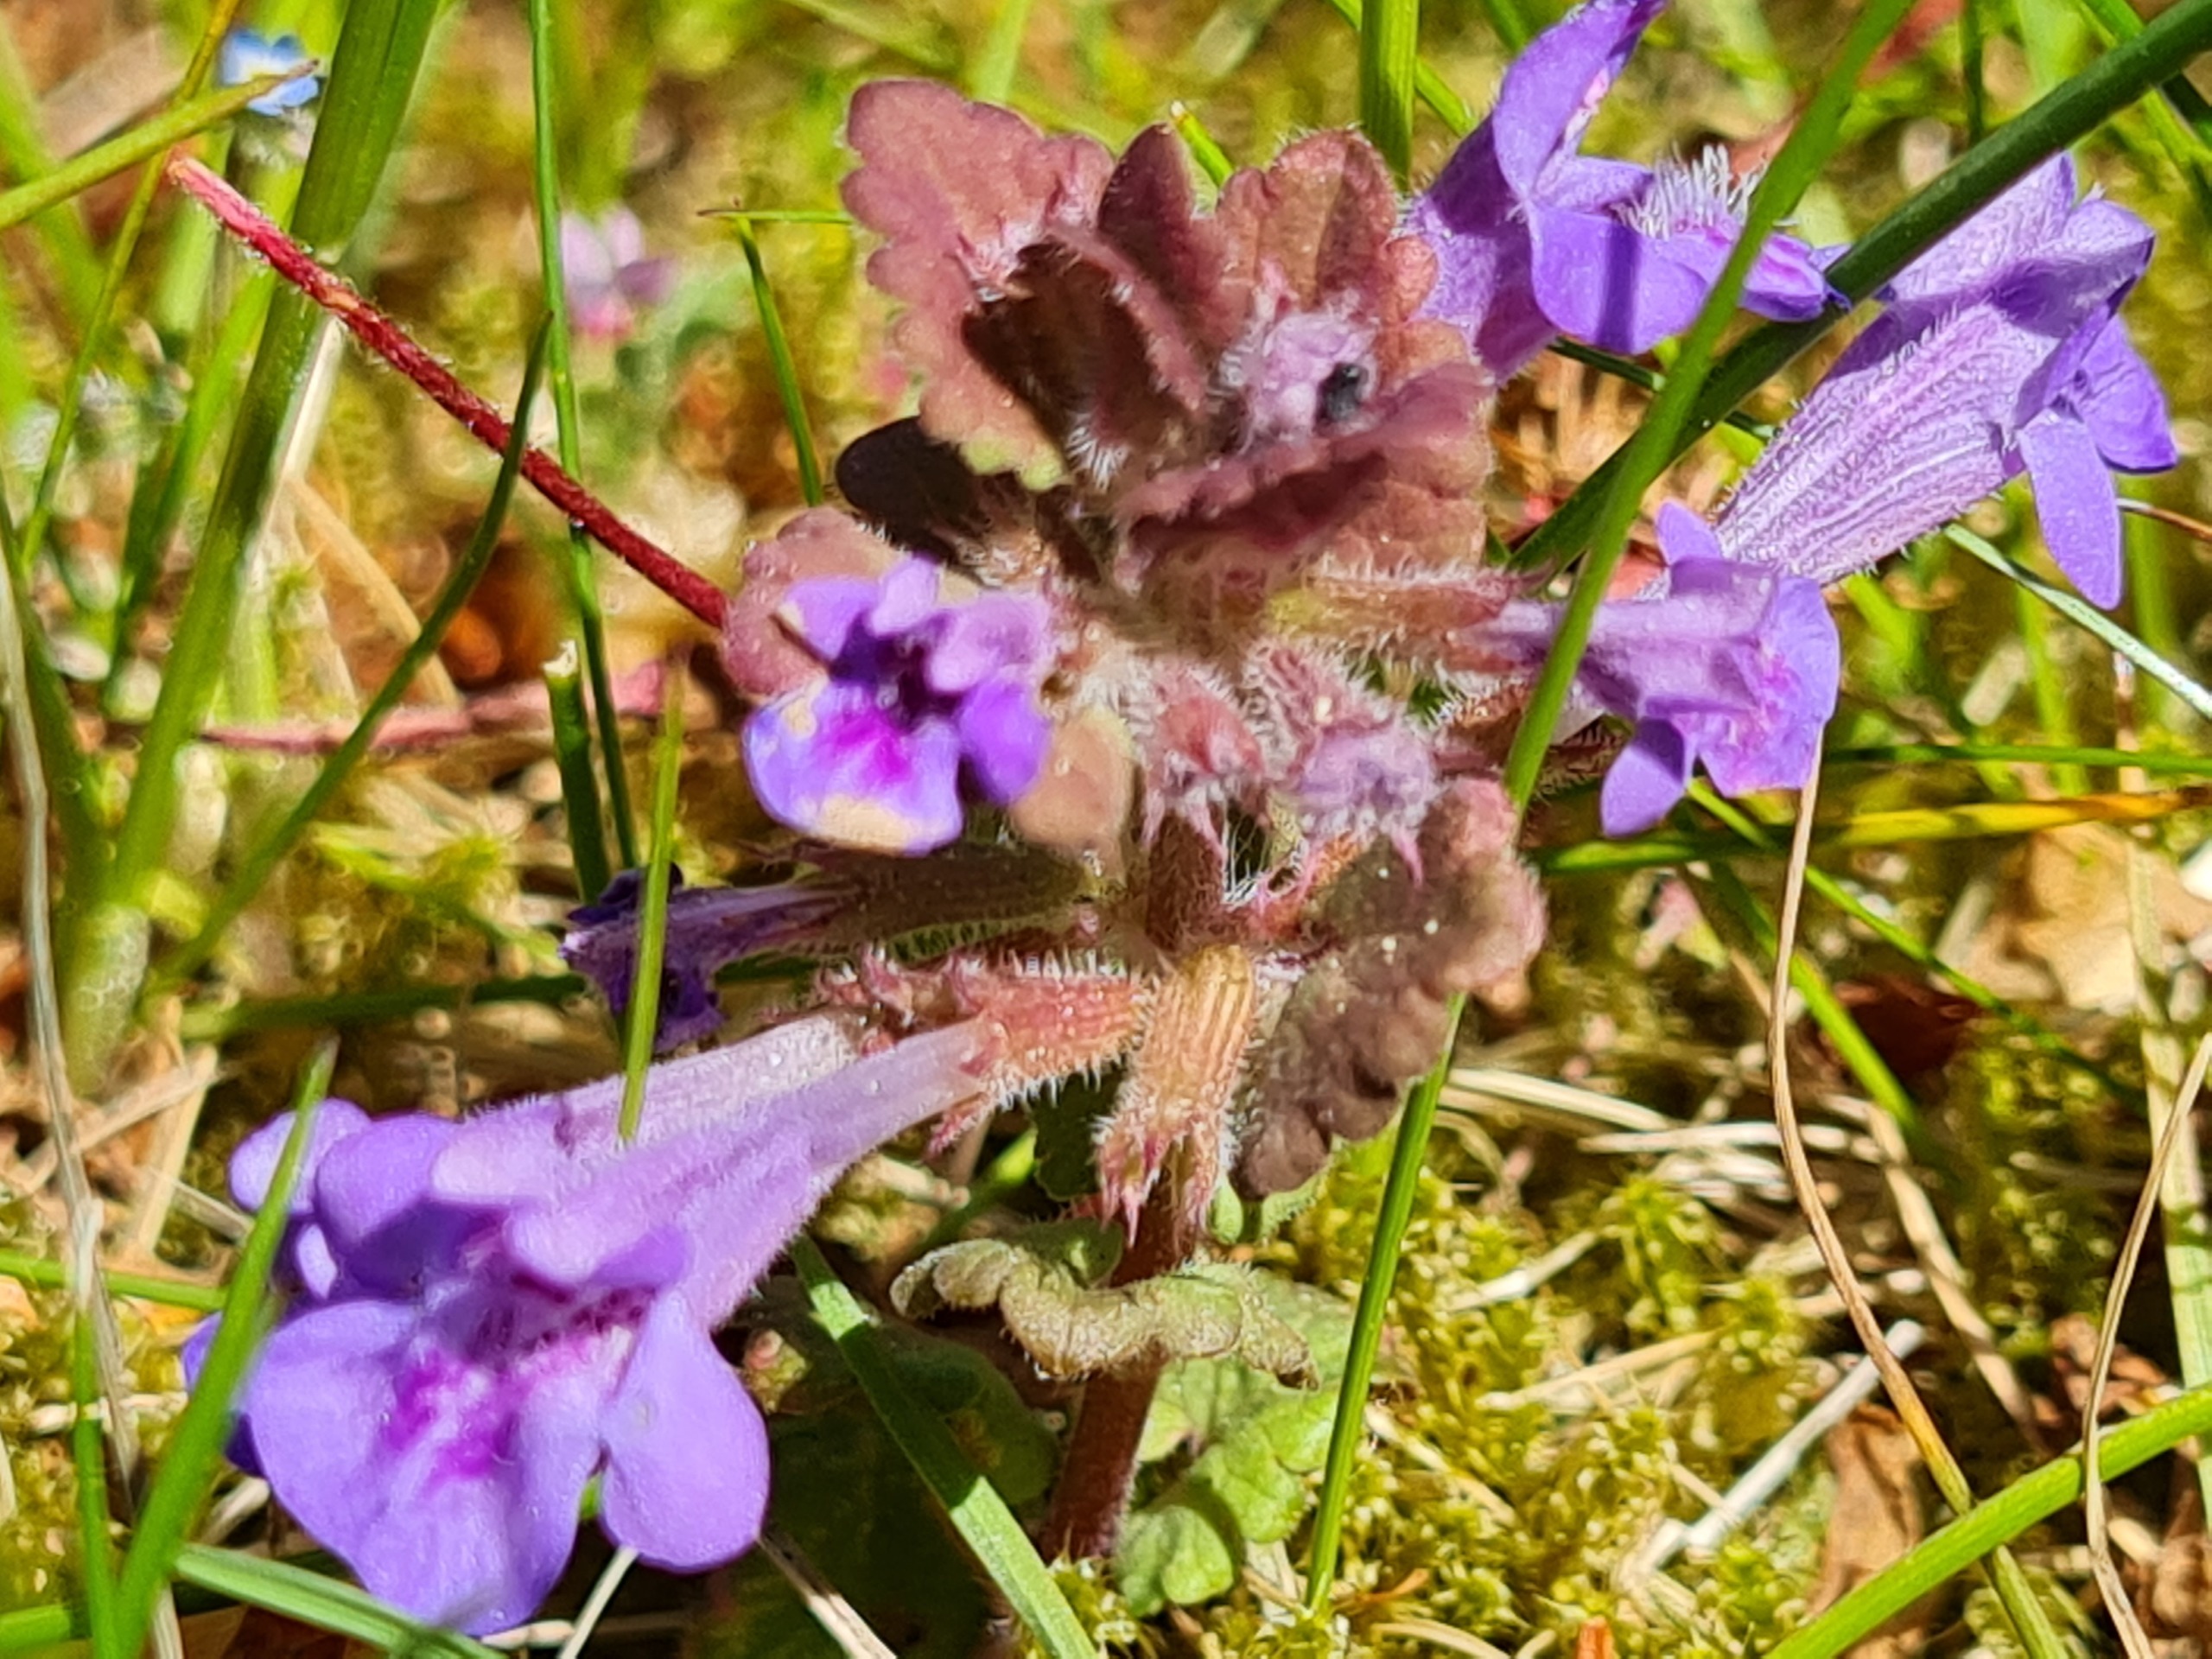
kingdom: Plantae
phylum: Tracheophyta
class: Magnoliopsida
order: Lamiales
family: Lamiaceae
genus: Glechoma
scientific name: Glechoma hederacea
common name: Korsknap
